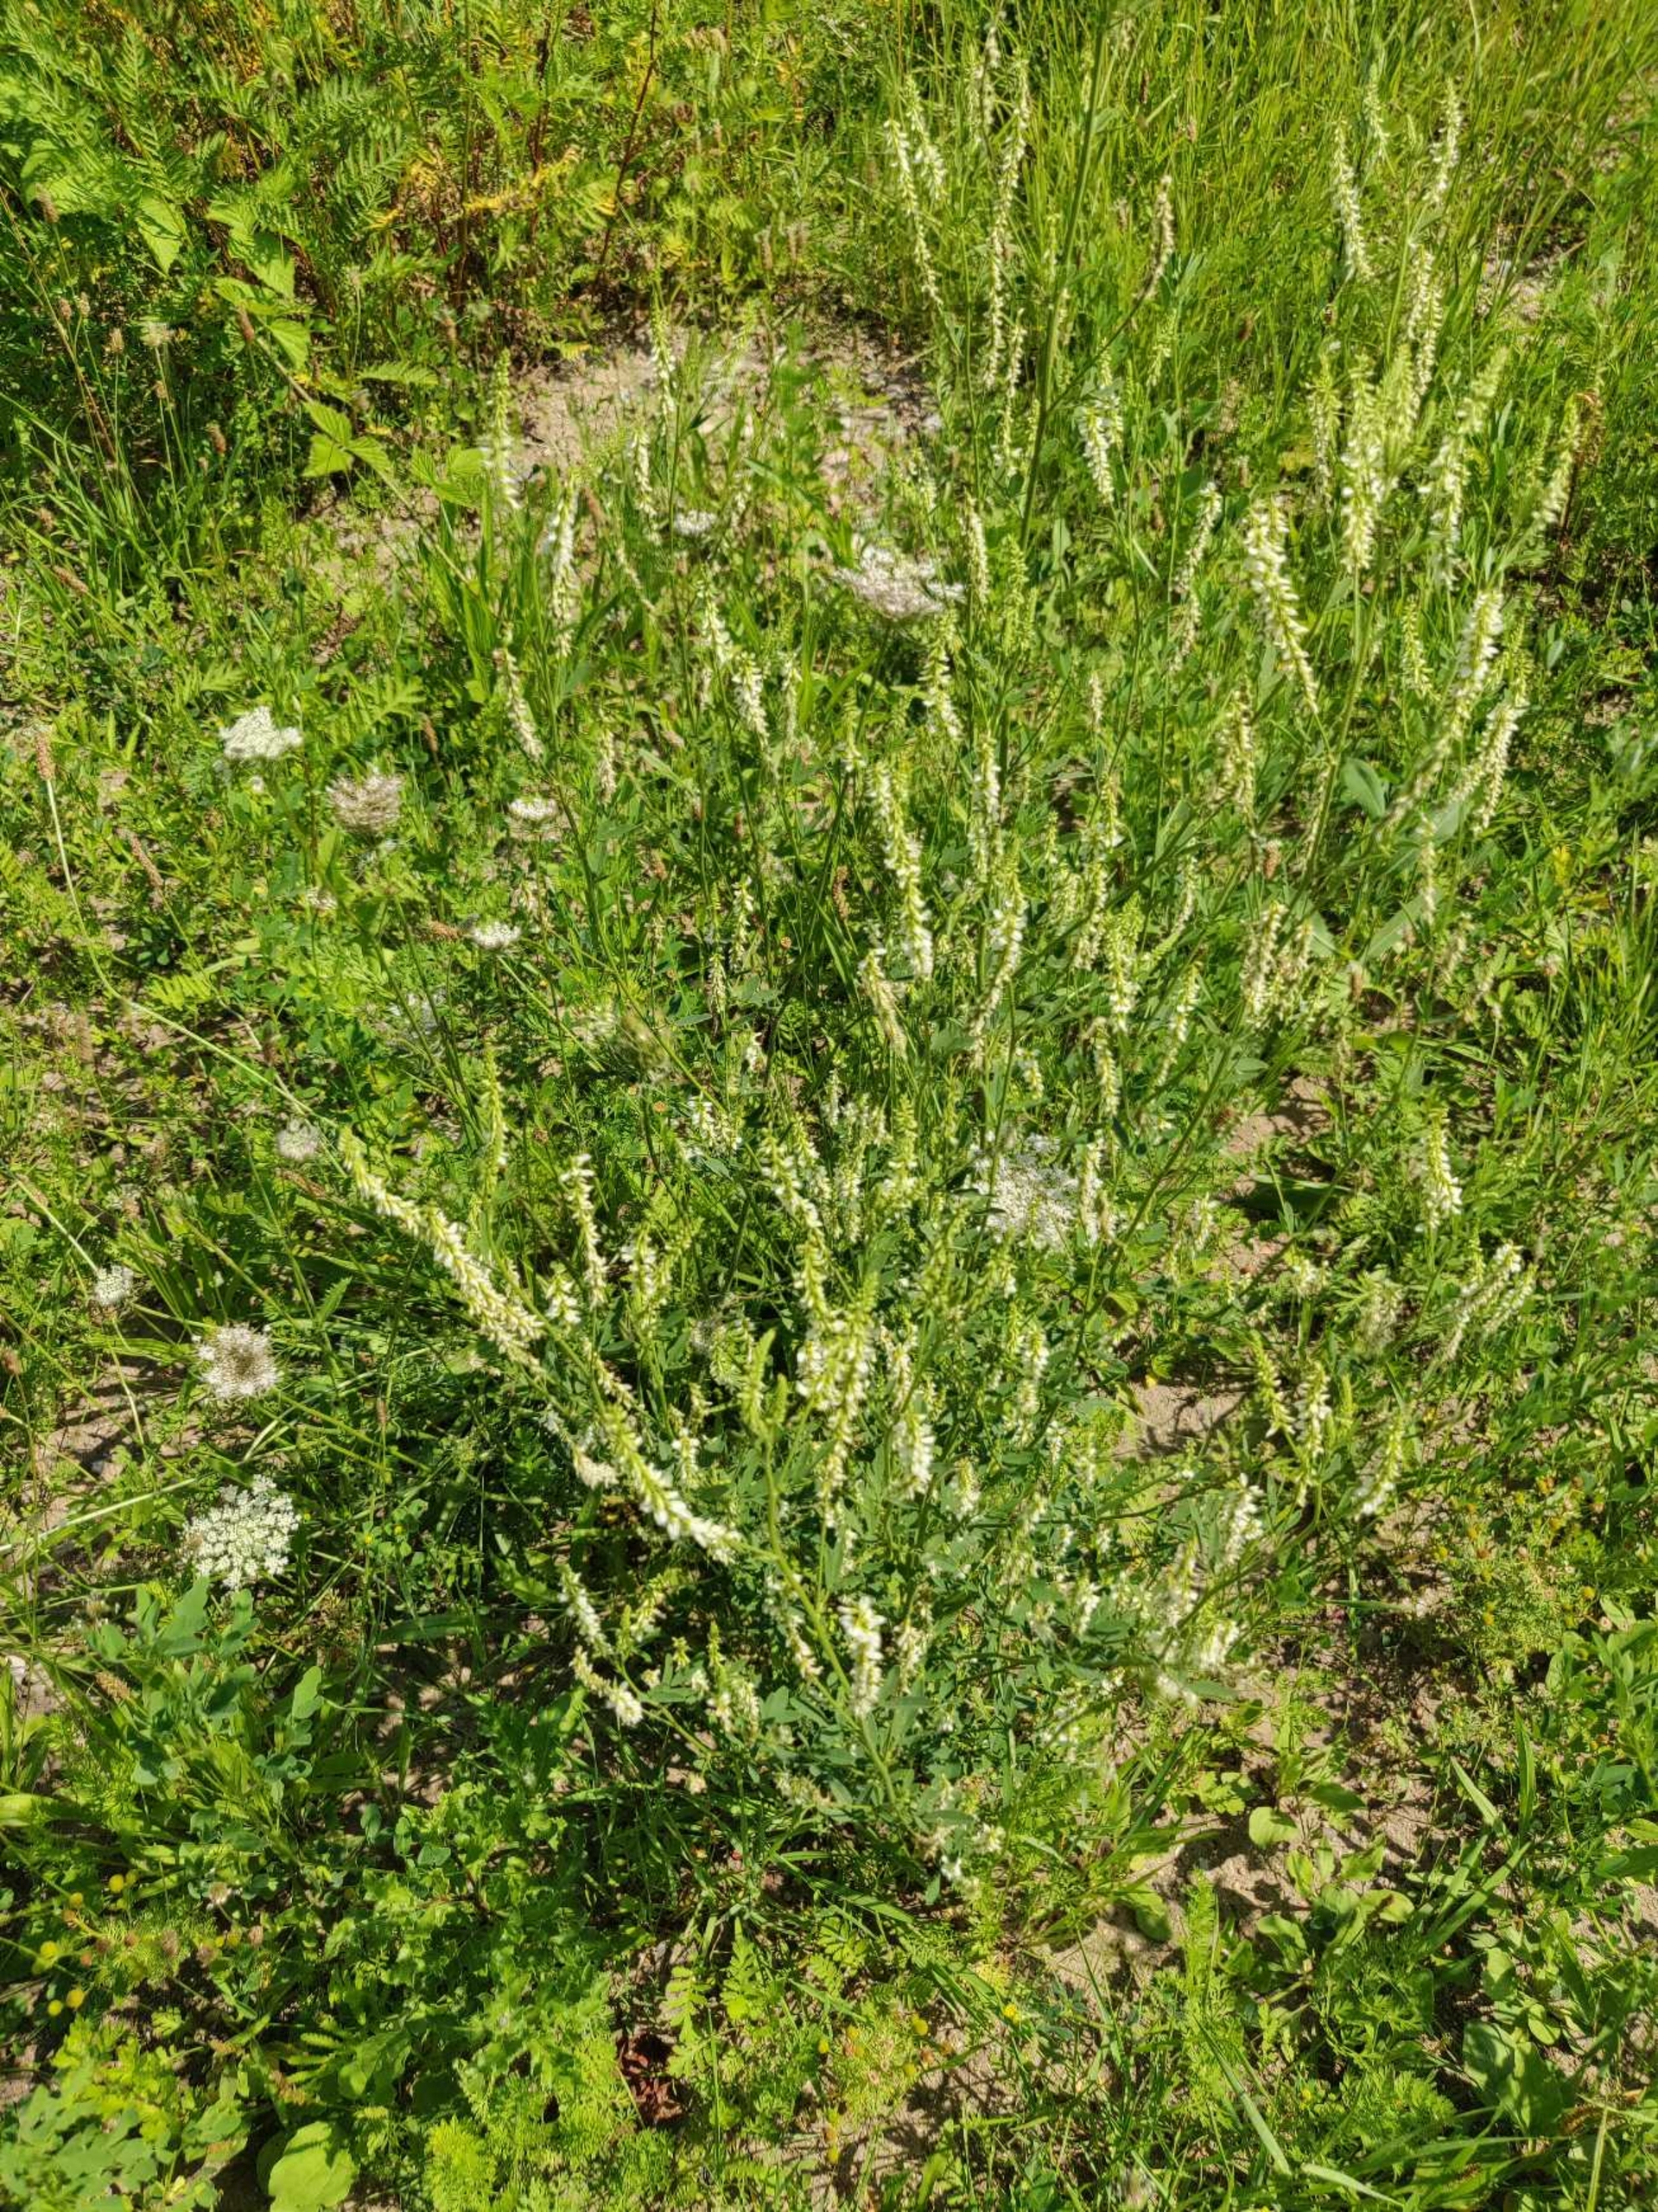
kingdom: Plantae
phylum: Tracheophyta
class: Magnoliopsida
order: Fabales
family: Fabaceae
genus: Melilotus
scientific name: Melilotus albus
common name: Hvid stenkløver
